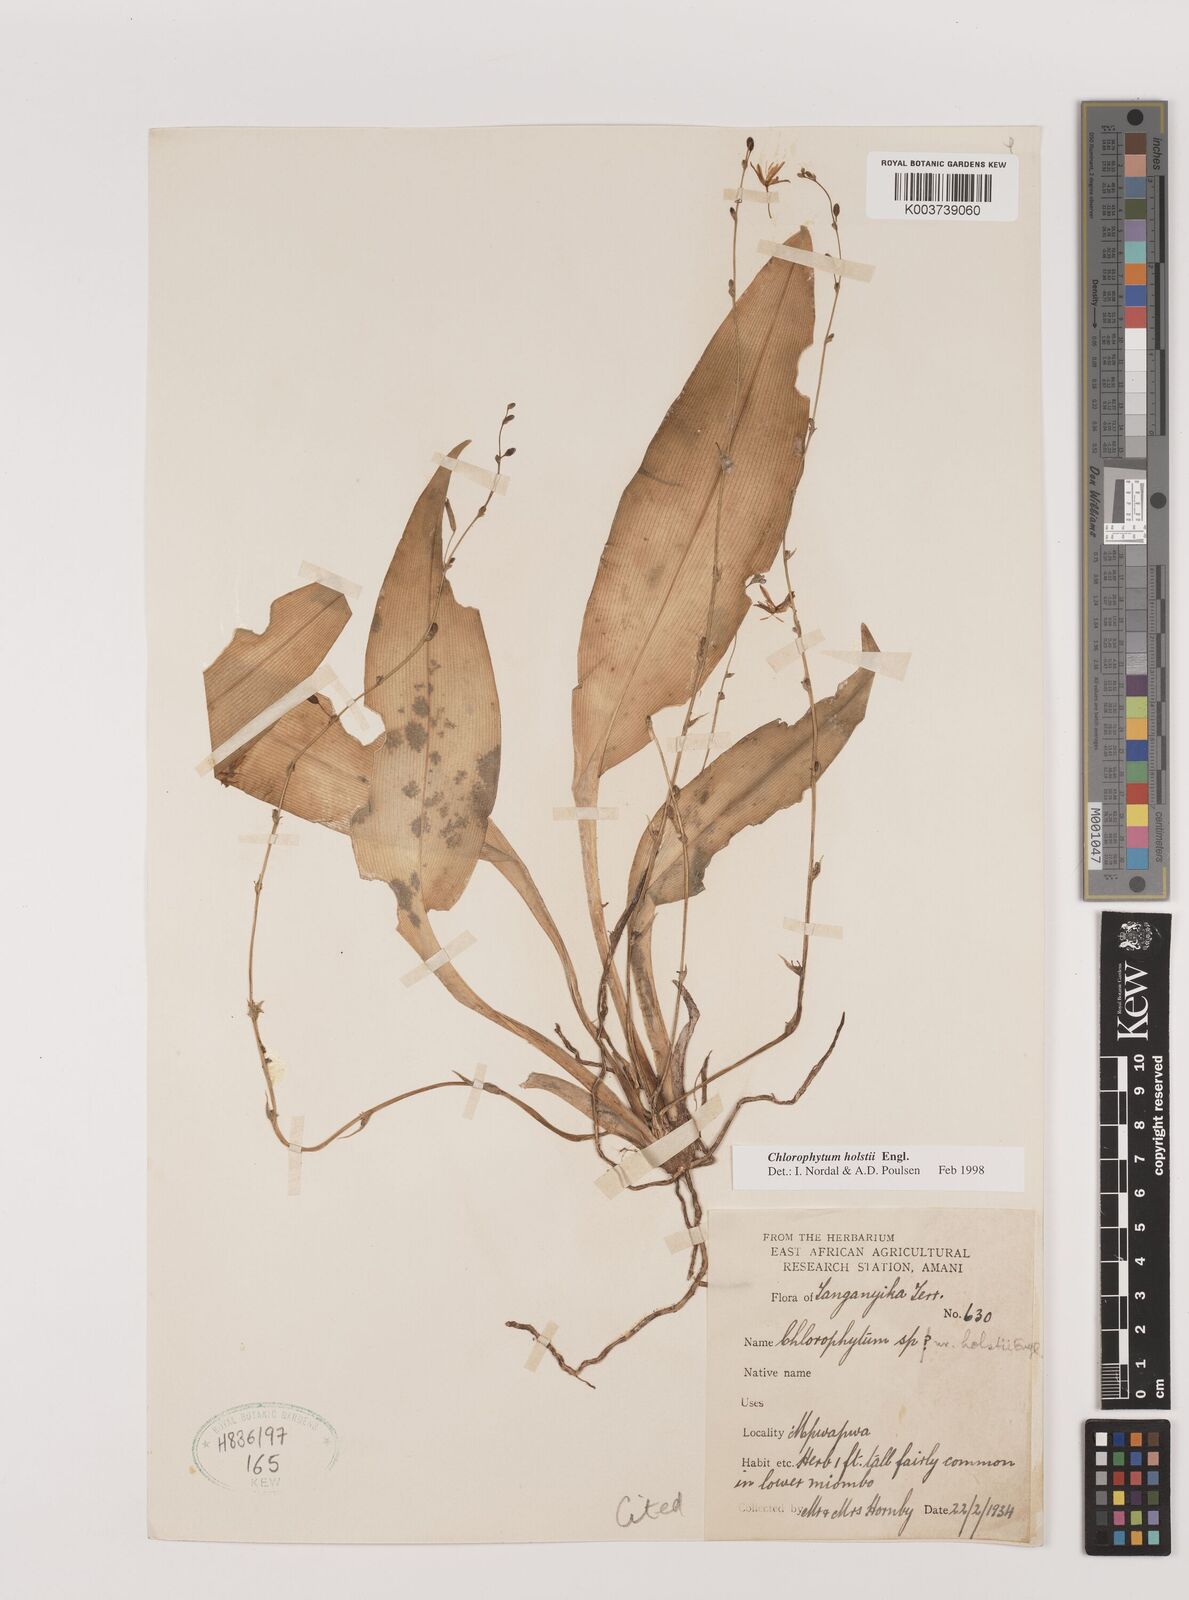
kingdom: Plantae
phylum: Tracheophyta
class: Liliopsida
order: Asparagales
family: Asparagaceae
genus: Chlorophytum
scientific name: Chlorophytum holstii
